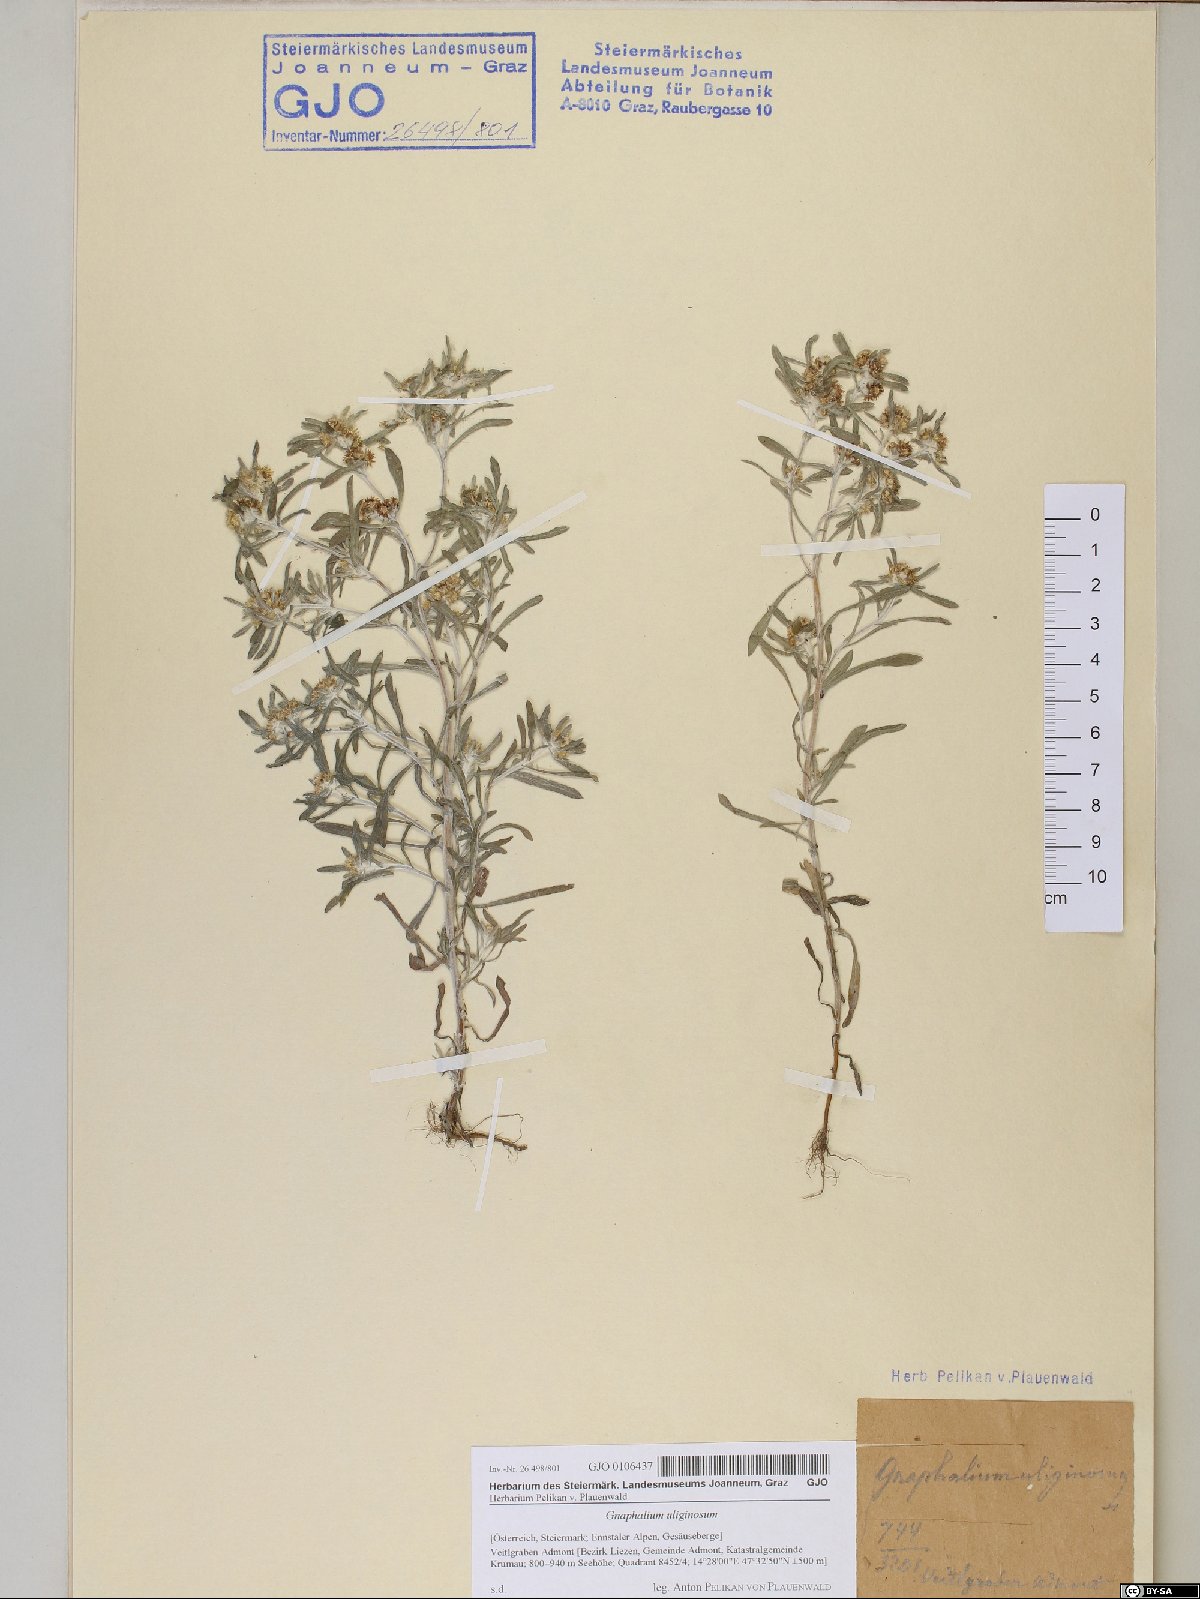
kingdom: Plantae
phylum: Tracheophyta
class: Magnoliopsida
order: Asterales
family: Asteraceae
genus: Gnaphalium
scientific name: Gnaphalium uliginosum
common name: Marsh cudweed
